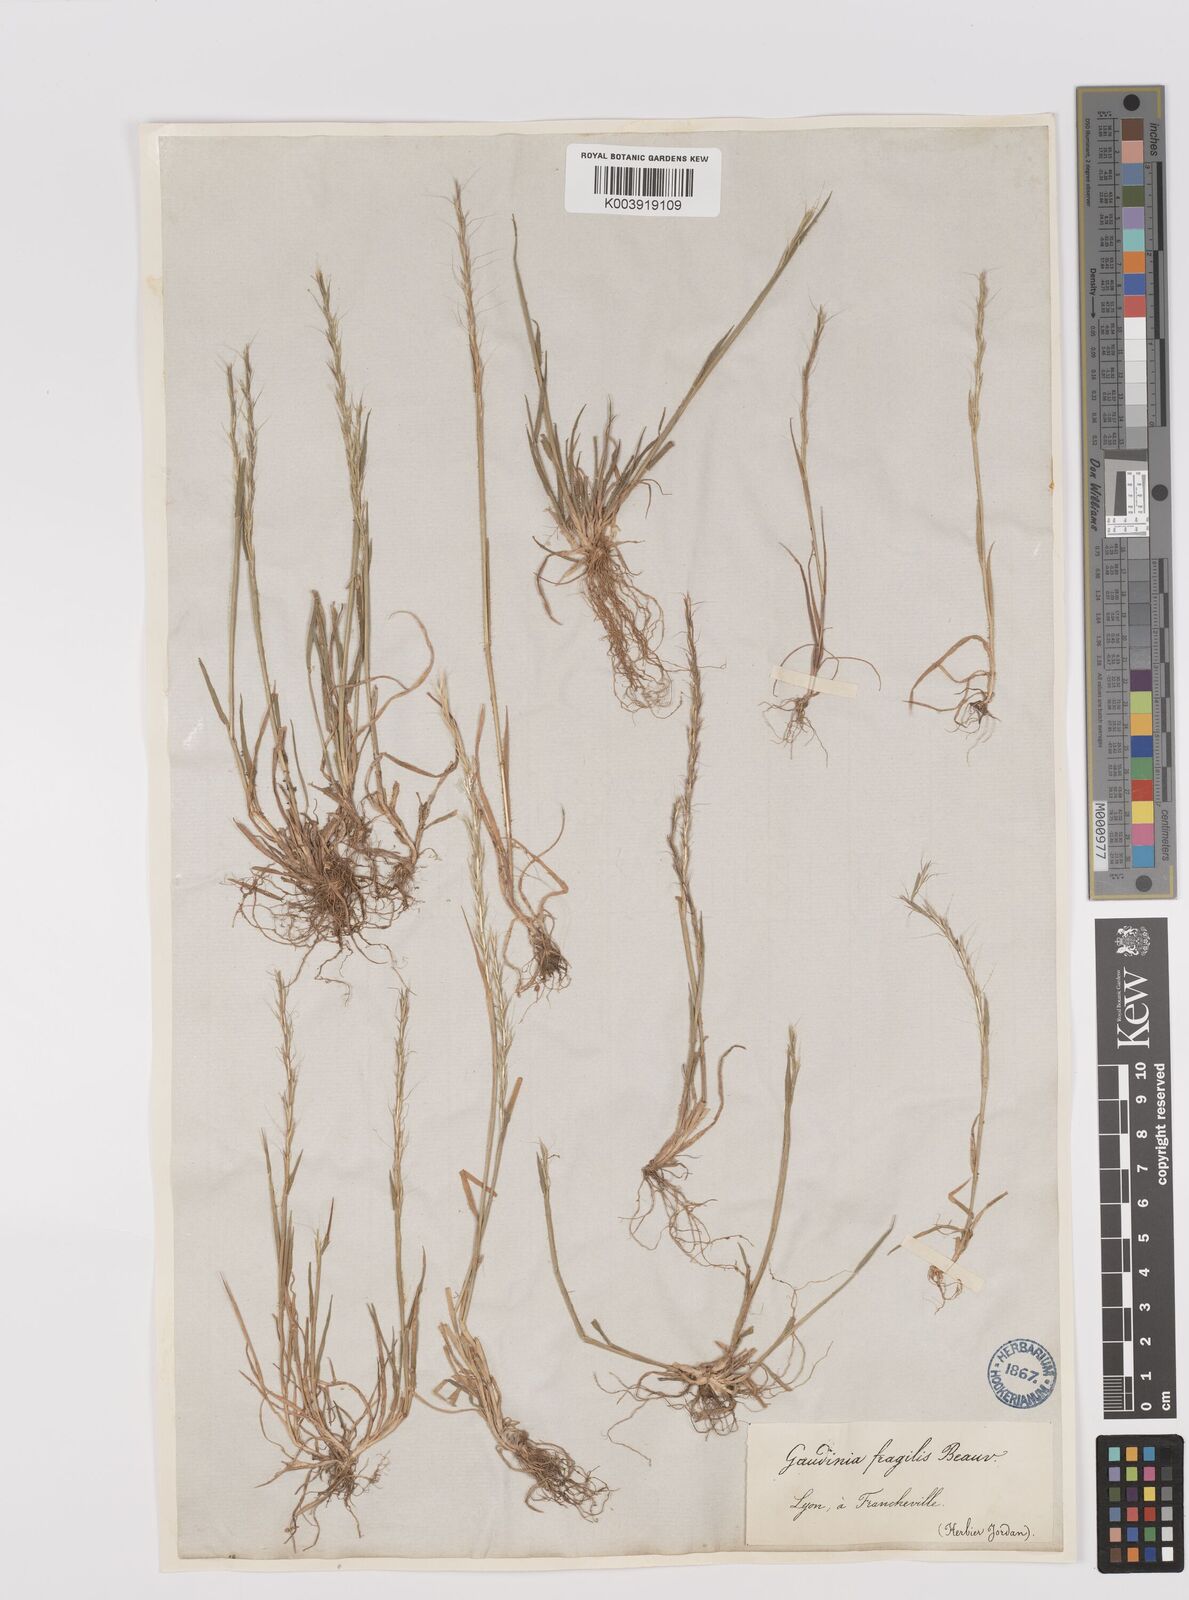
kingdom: Plantae
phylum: Tracheophyta
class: Liliopsida
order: Poales
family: Poaceae
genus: Gaudinia
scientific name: Gaudinia fragilis
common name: French oat-grass
